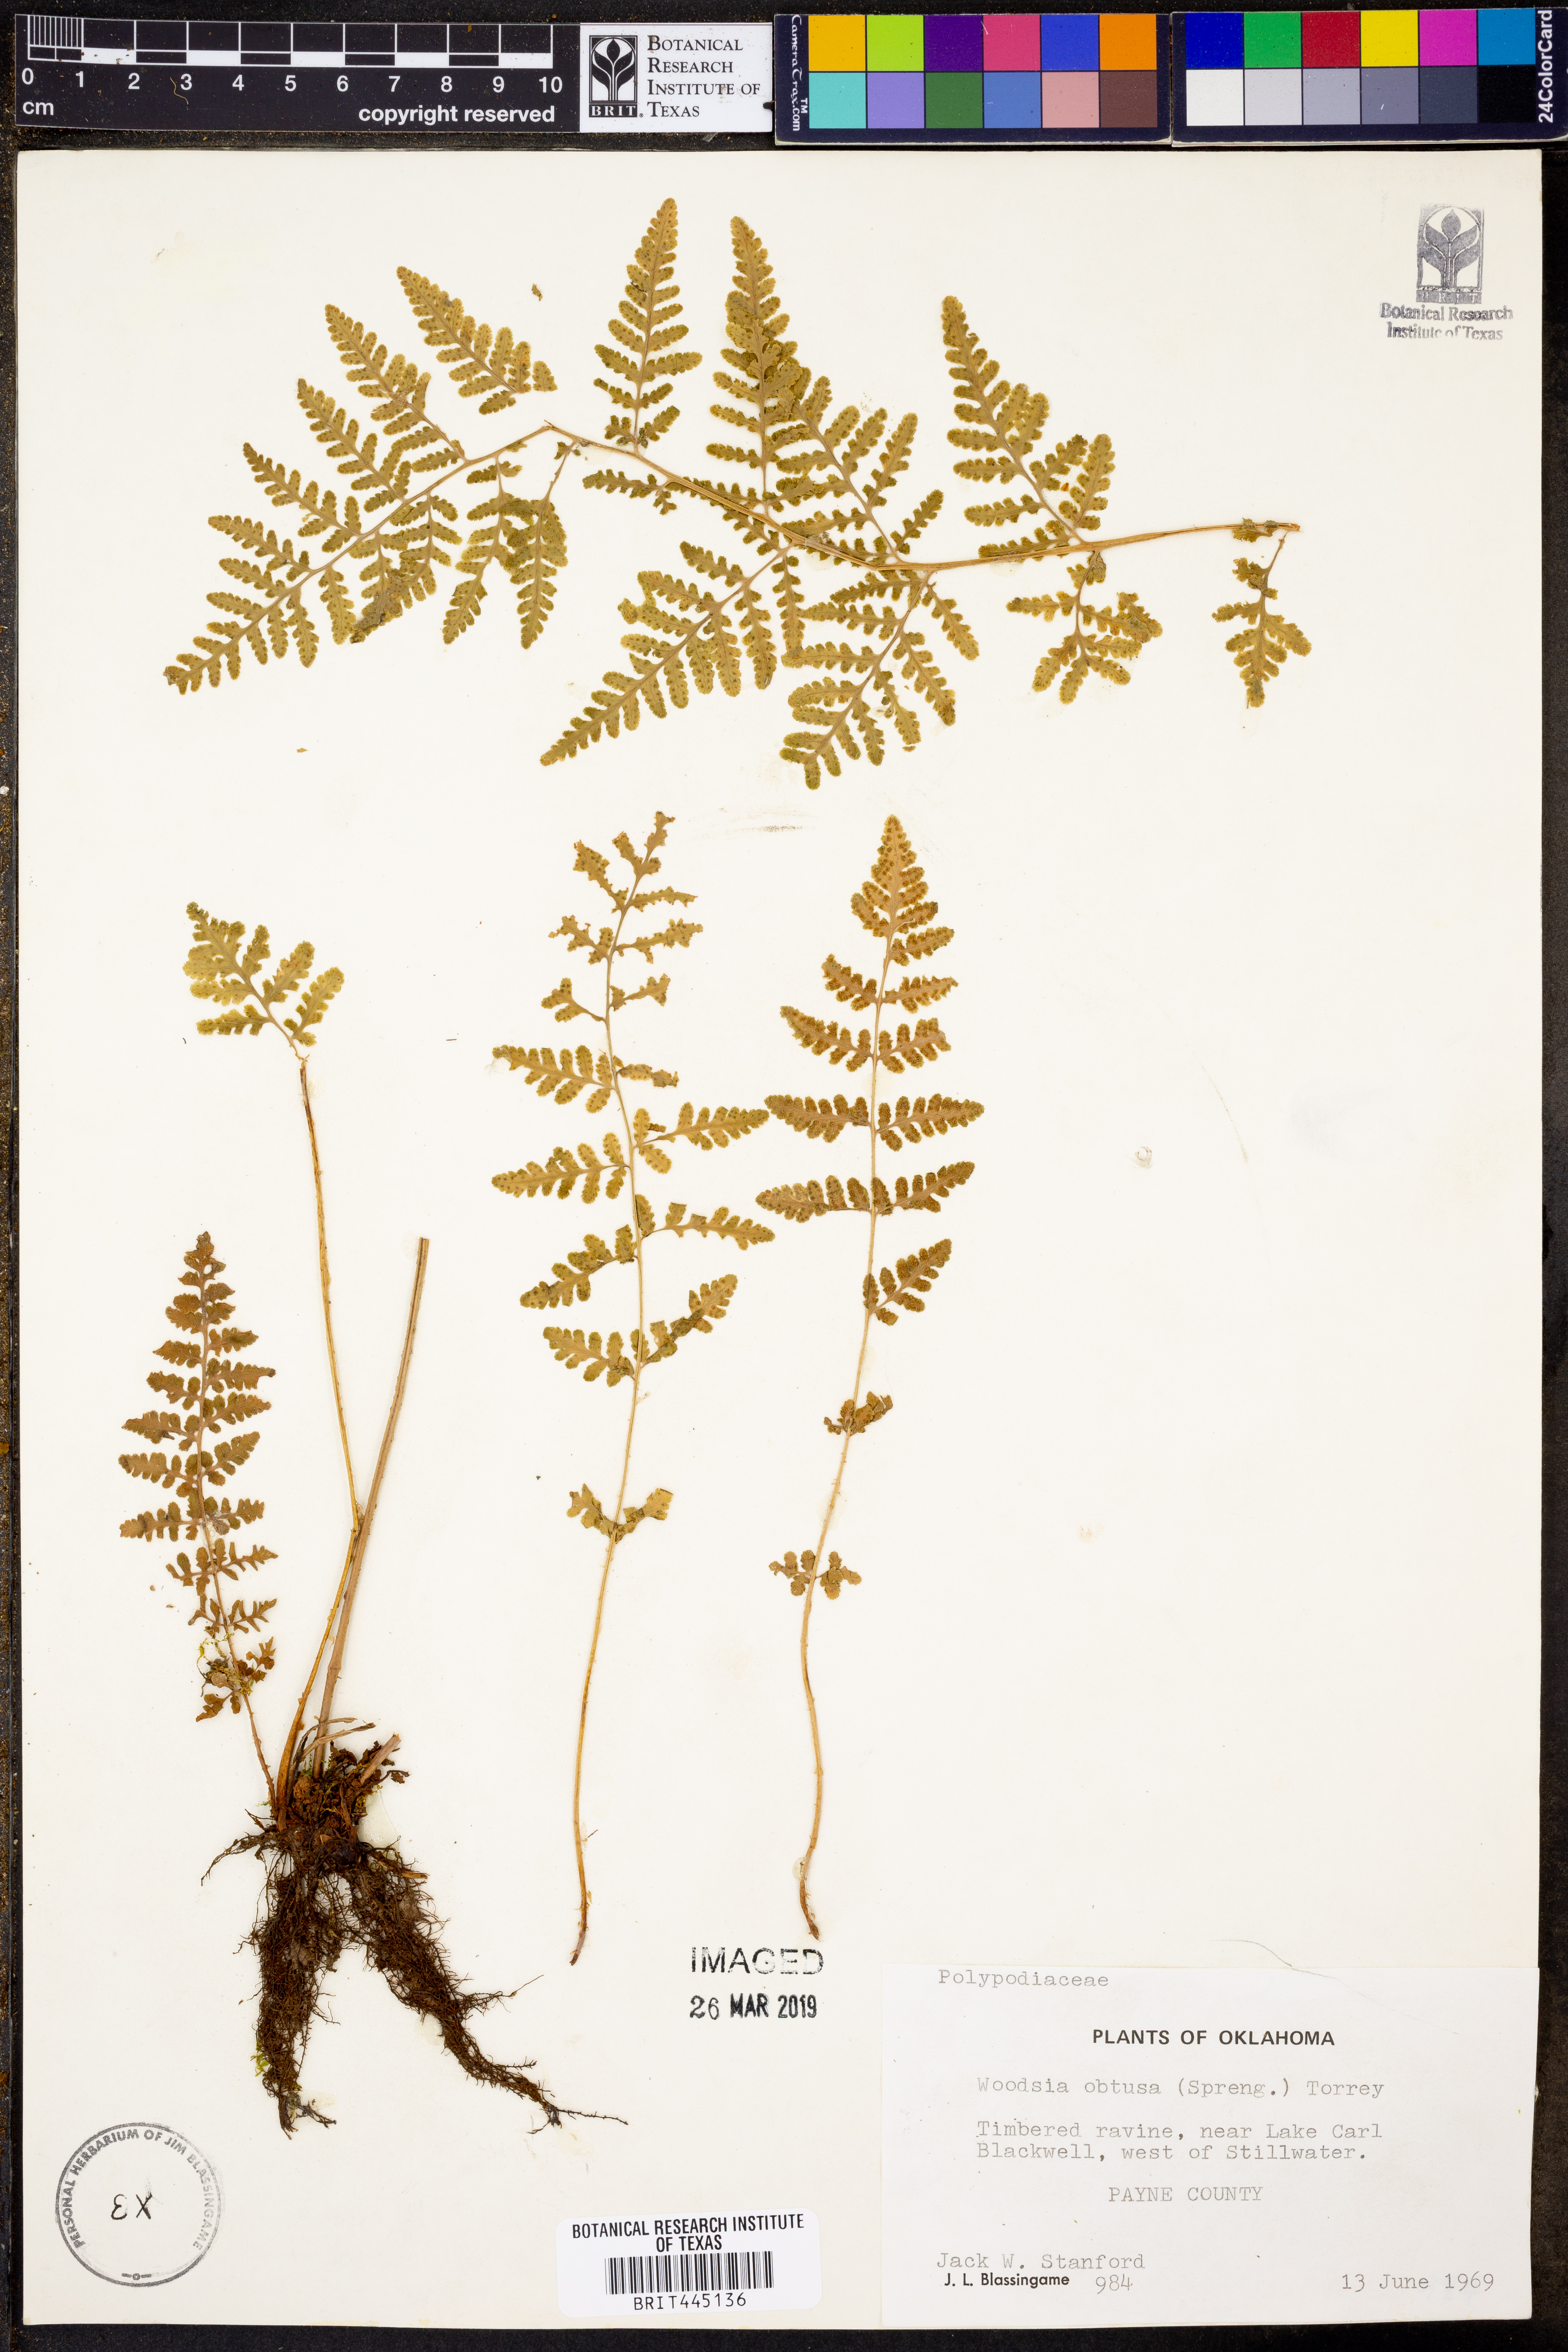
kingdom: Plantae
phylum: Tracheophyta
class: Polypodiopsida
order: Polypodiales
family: Woodsiaceae
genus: Physematium
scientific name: Physematium obtusum
